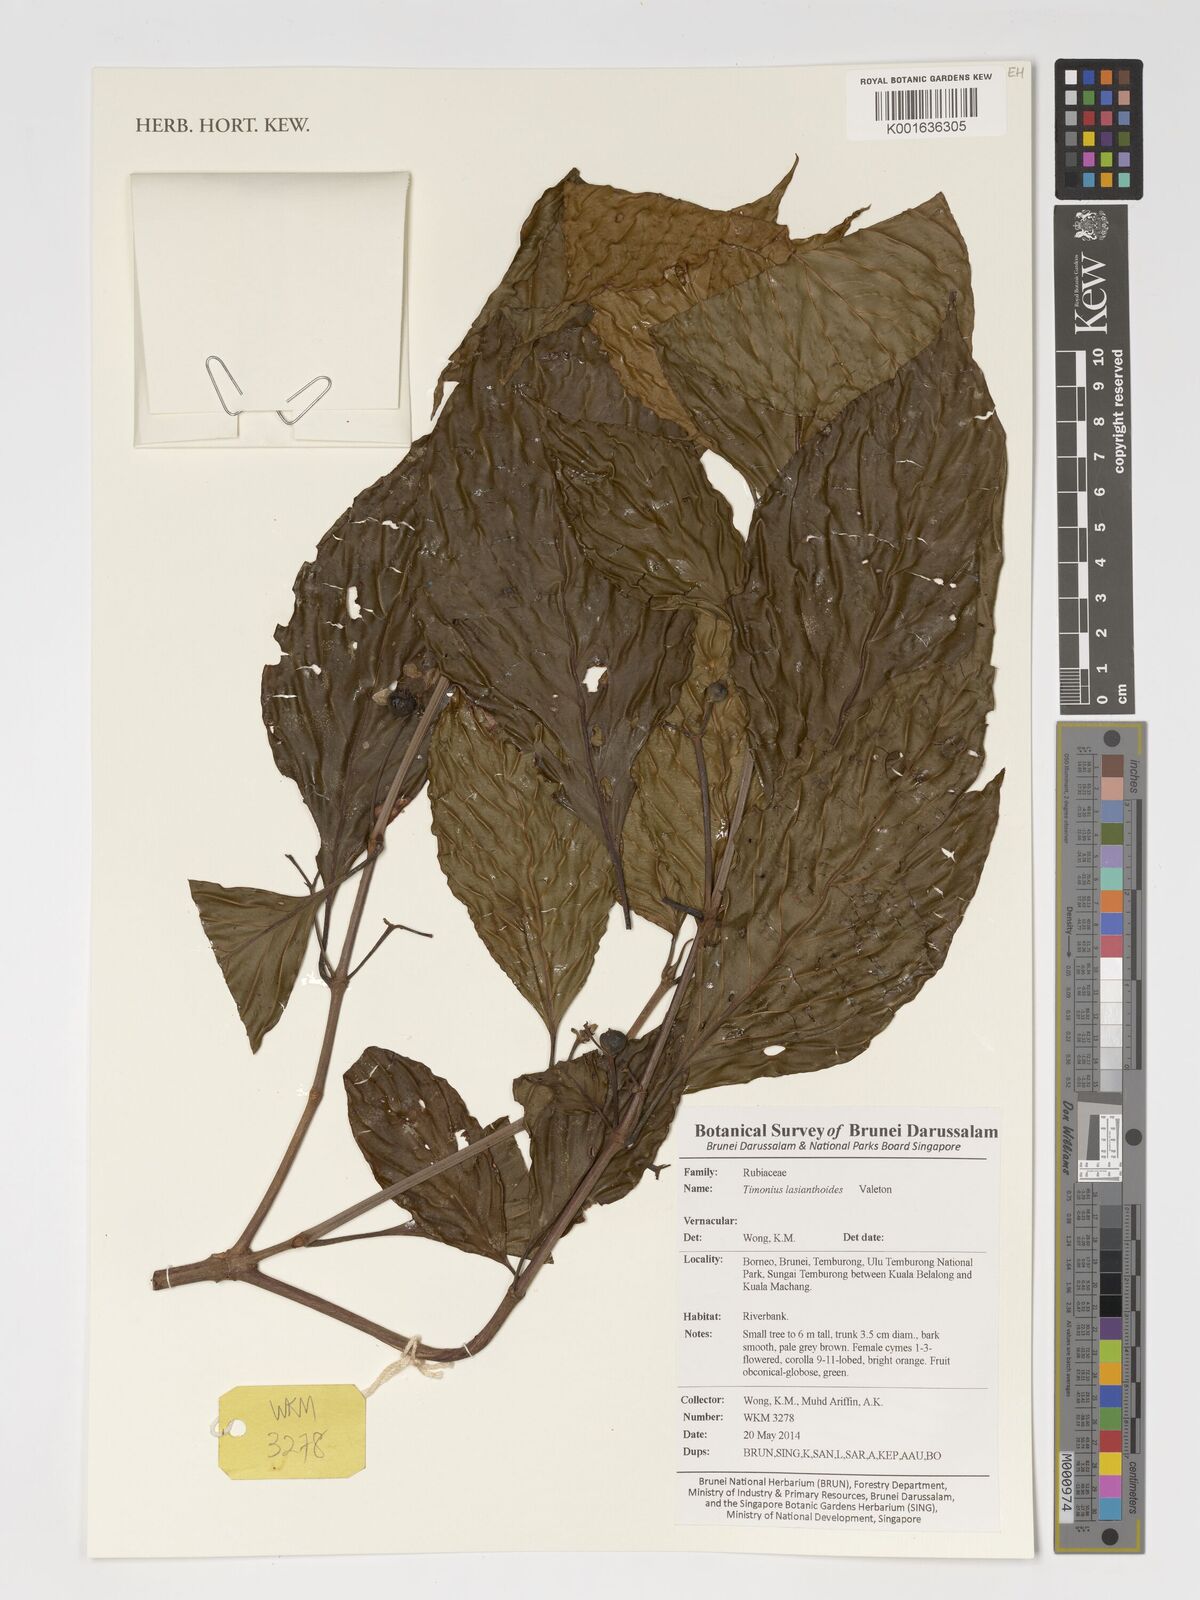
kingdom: Plantae
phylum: Tracheophyta
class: Magnoliopsida
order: Gentianales
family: Rubiaceae
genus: Timonius
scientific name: Timonius lasianthoides
